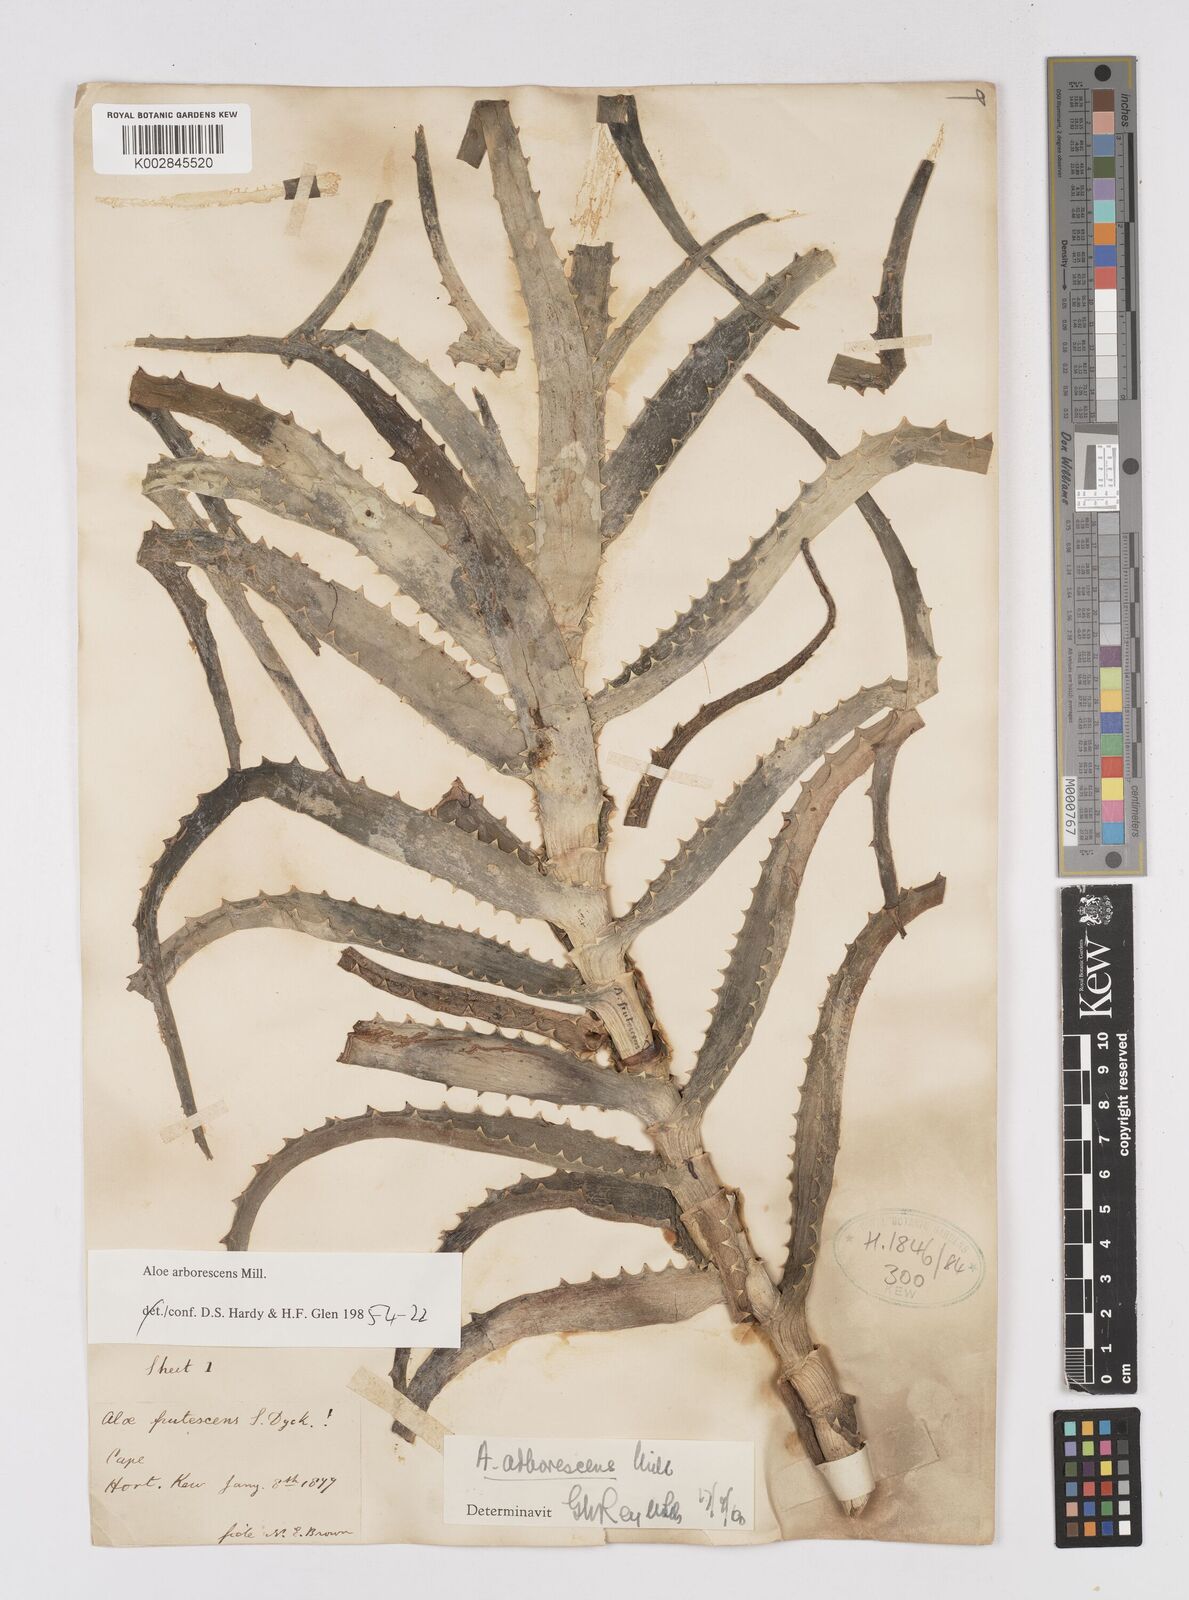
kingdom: Plantae
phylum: Tracheophyta
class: Liliopsida
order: Asparagales
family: Asphodelaceae
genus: Aloe
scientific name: Aloe arborescens
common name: Candelabra aloe
